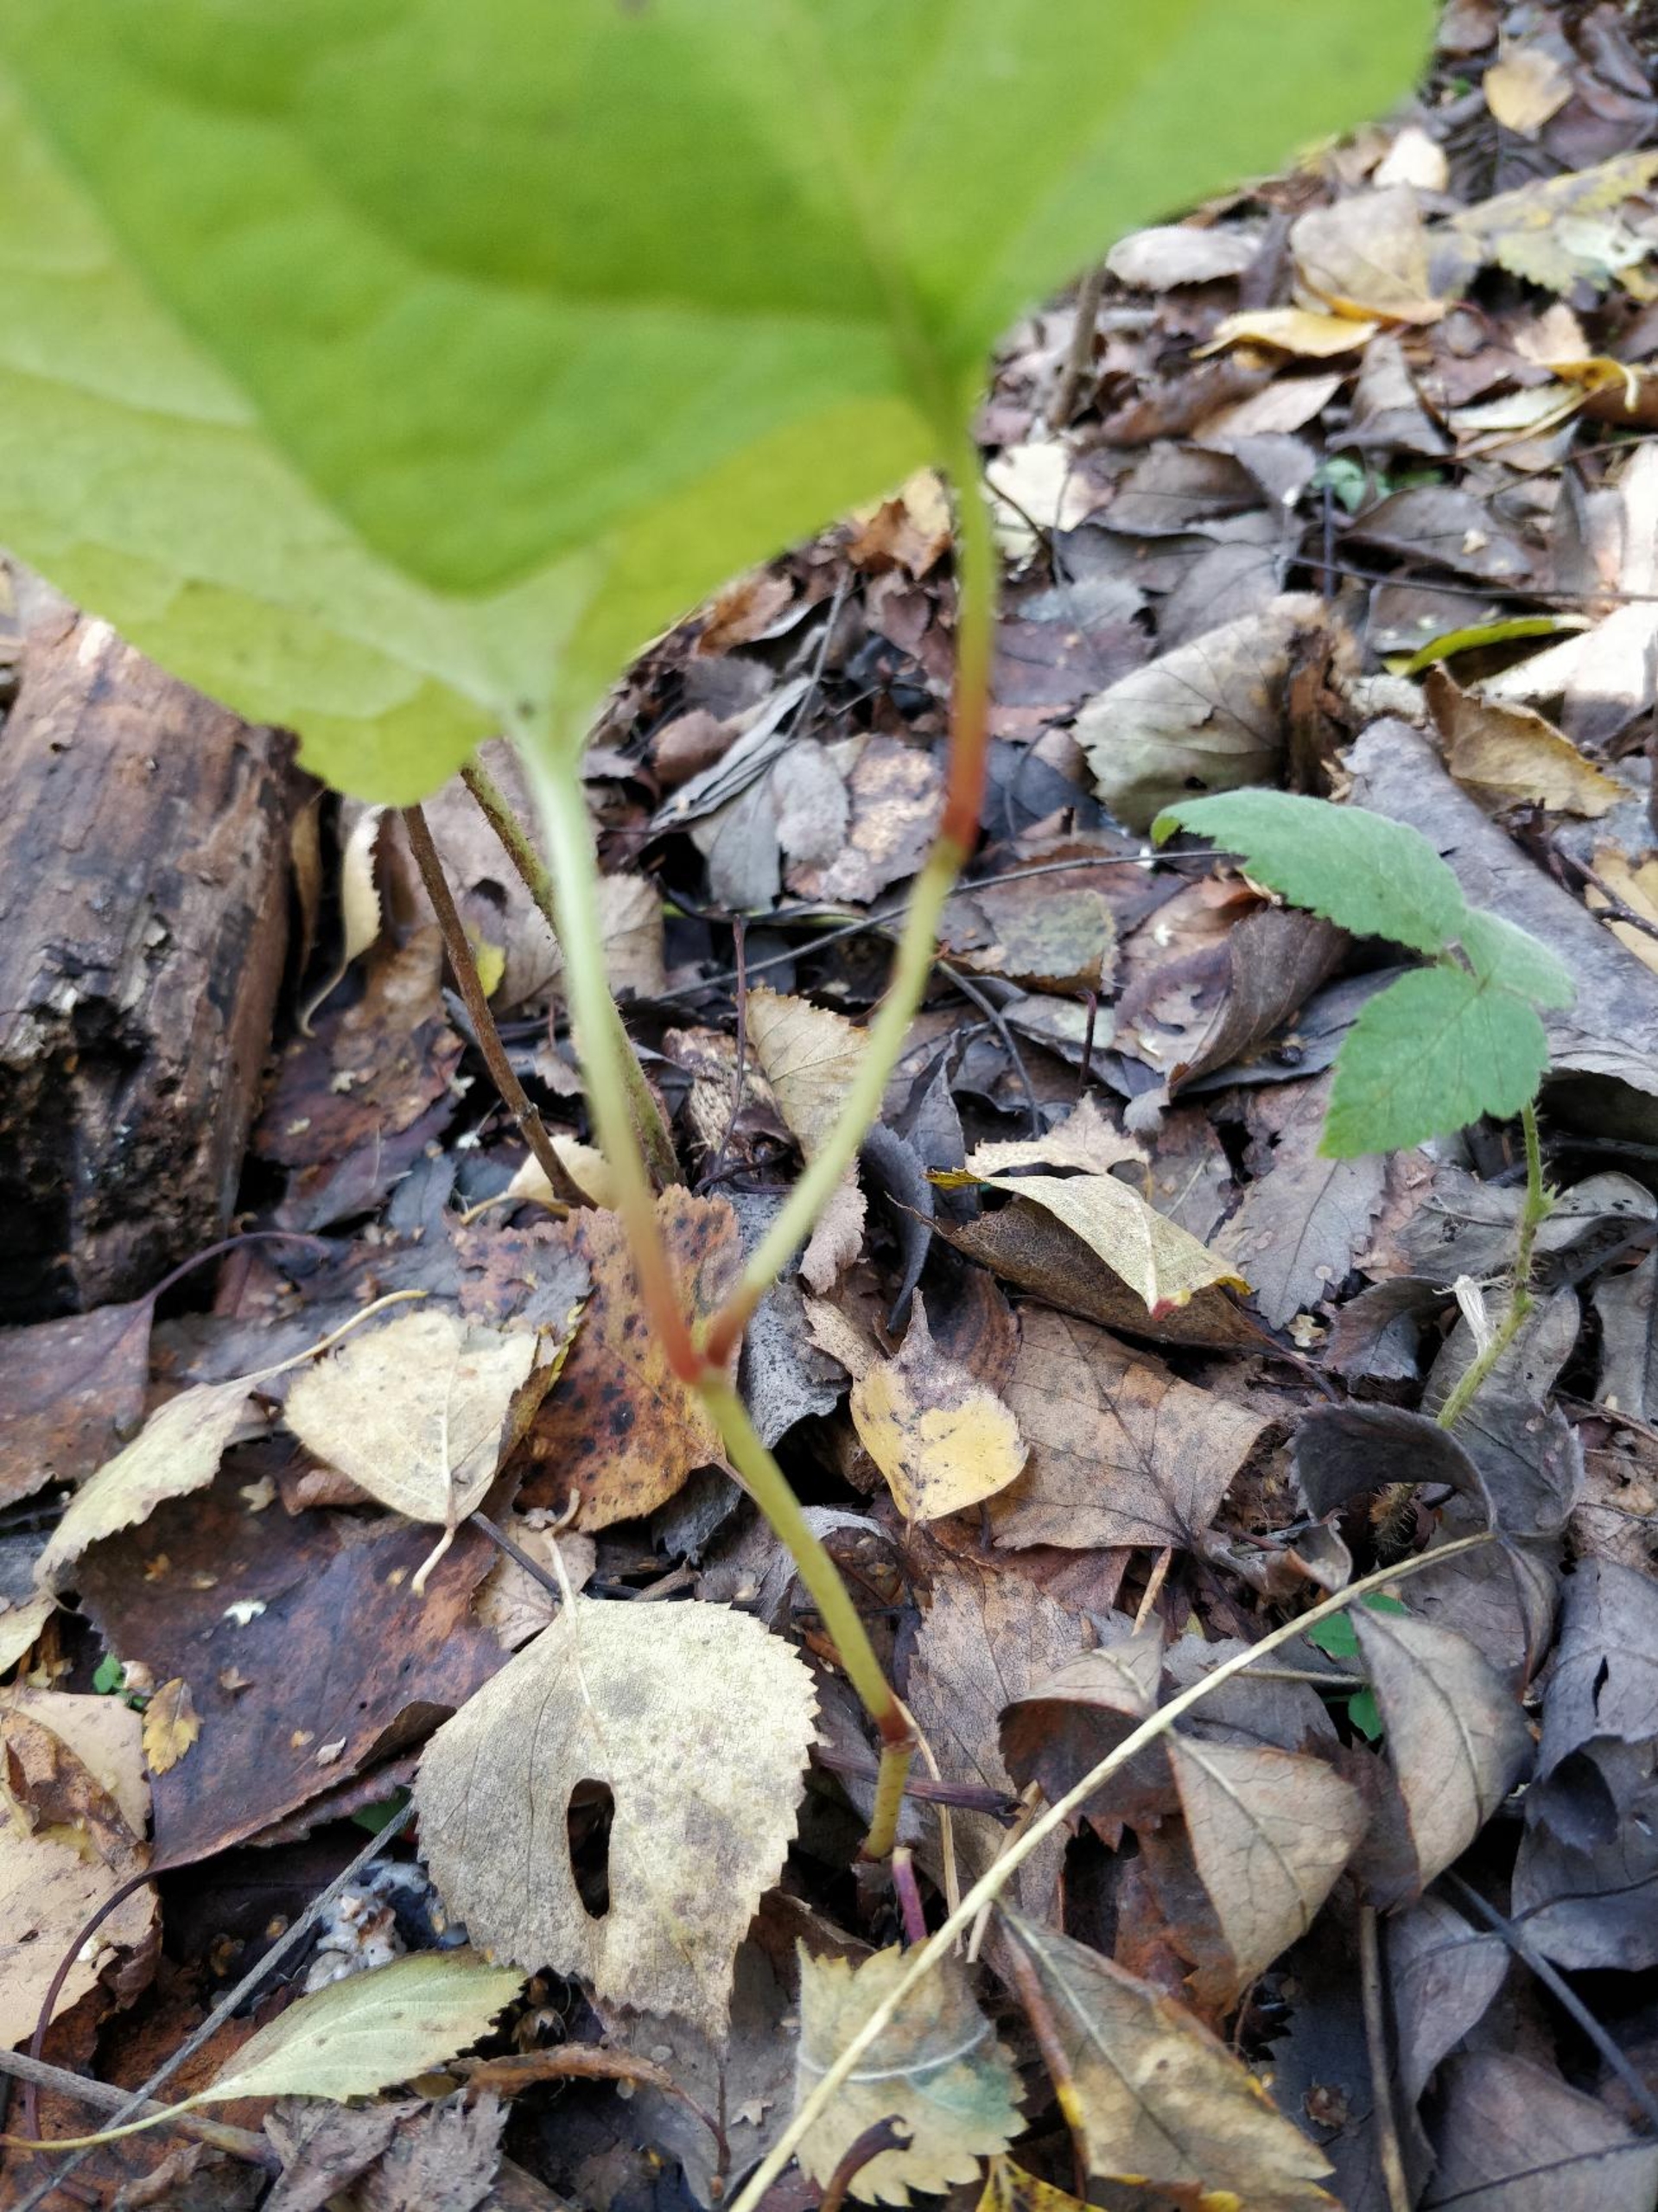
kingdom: Plantae
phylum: Tracheophyta
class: Magnoliopsida
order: Caryophyllales
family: Polygonaceae
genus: Reynoutria
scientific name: Reynoutria japonica
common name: Japan-pileurt
